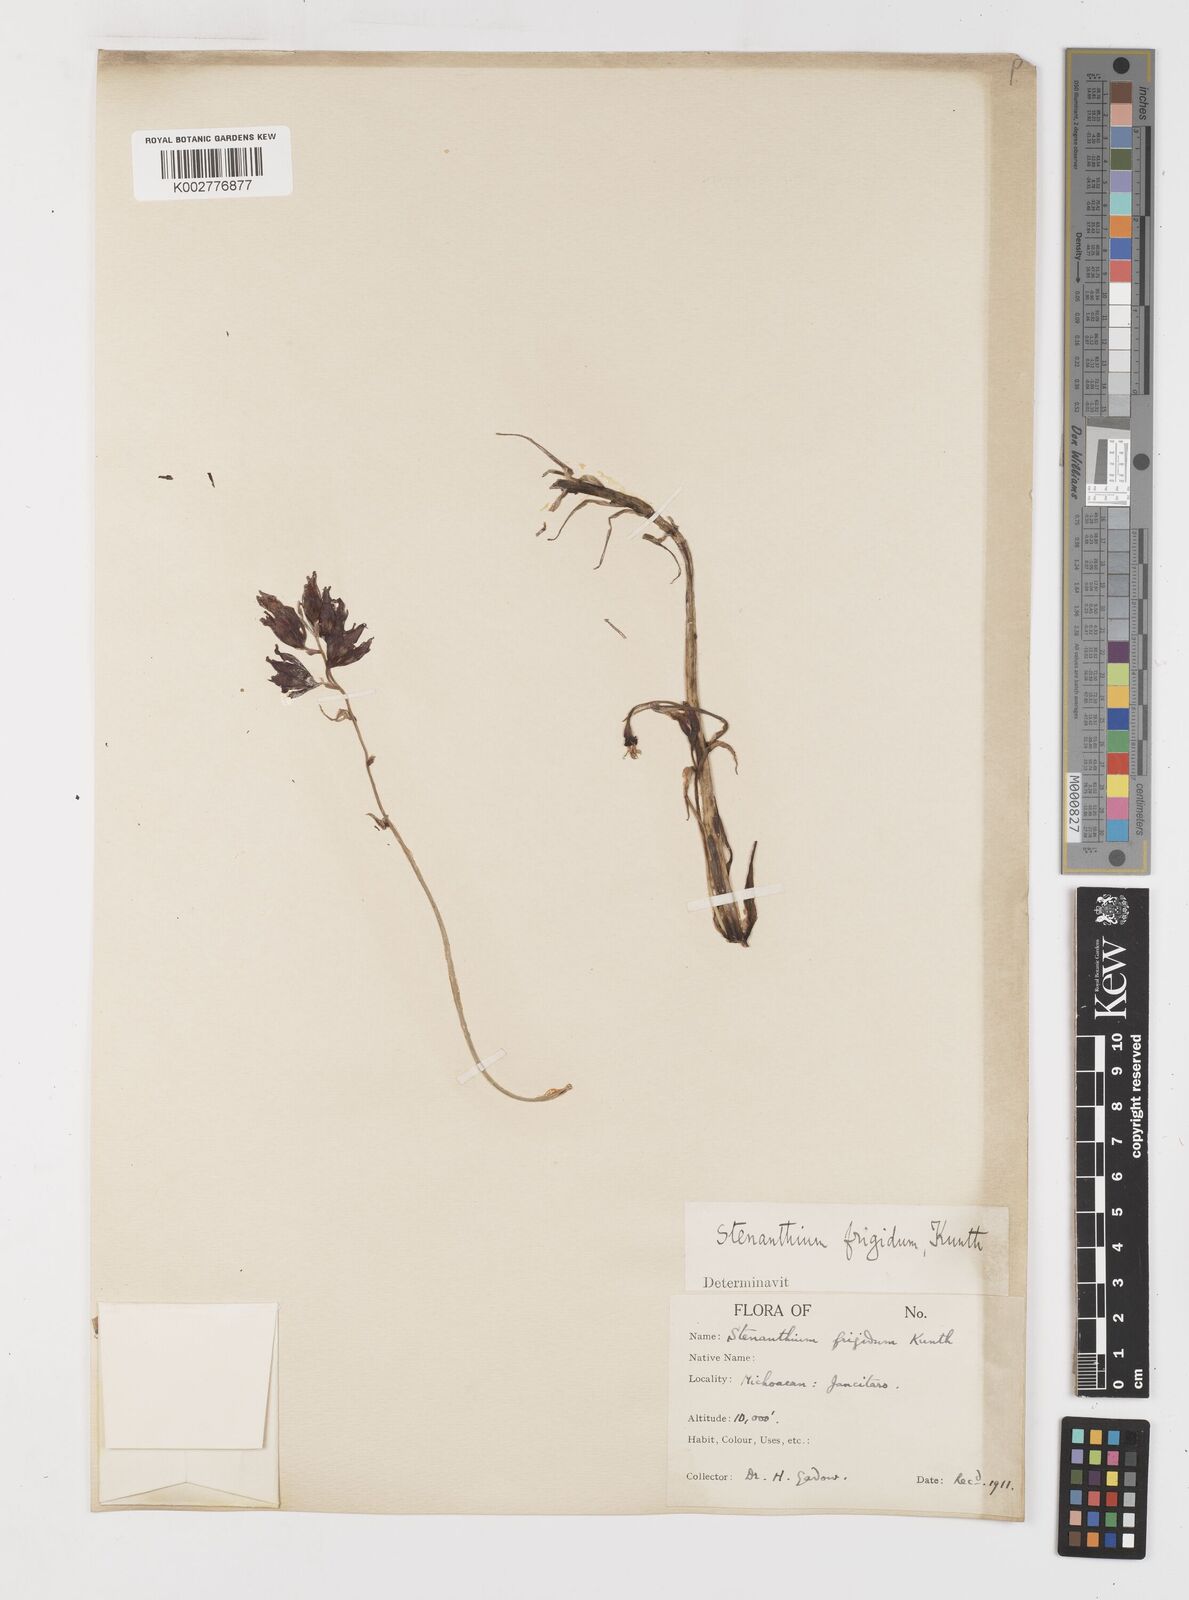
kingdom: Plantae
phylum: Tracheophyta
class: Liliopsida
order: Liliales
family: Melanthiaceae
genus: Anticlea
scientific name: Anticlea frigida
